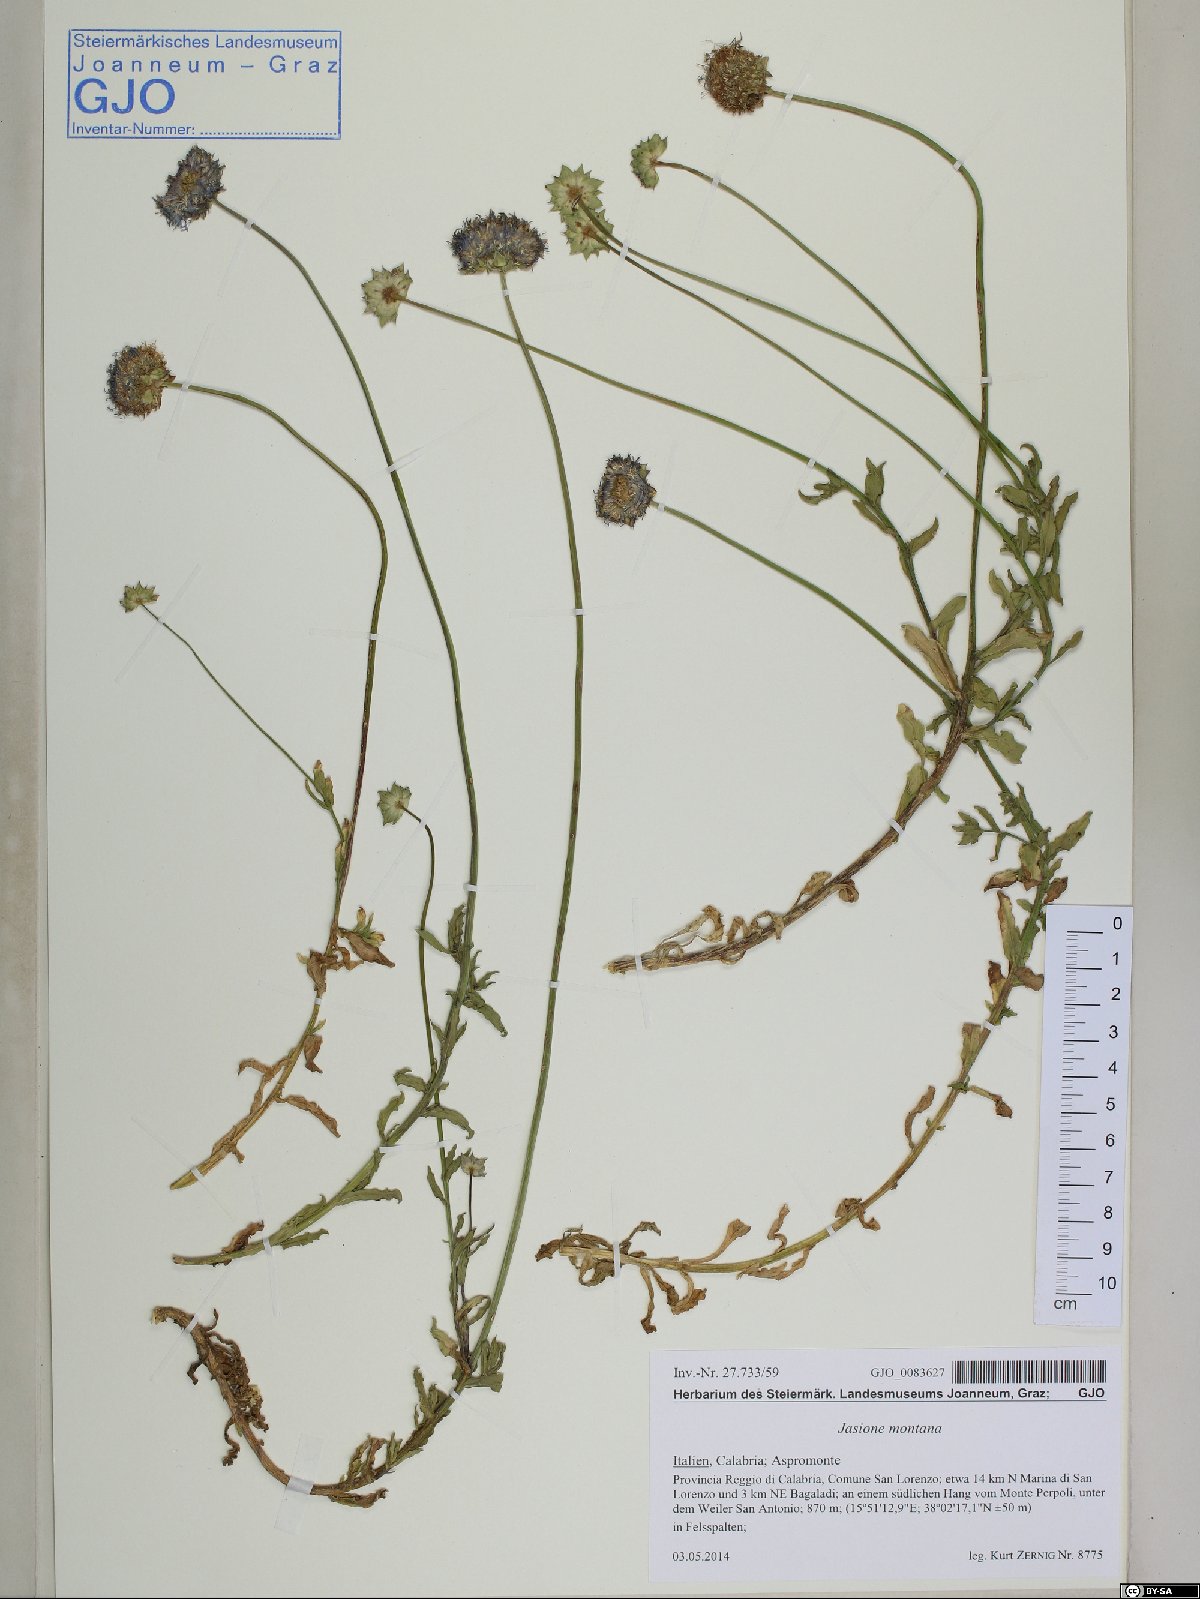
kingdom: Plantae
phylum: Tracheophyta
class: Magnoliopsida
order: Asterales
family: Campanulaceae
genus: Jasione
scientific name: Jasione montana
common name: Sheep's-bit
